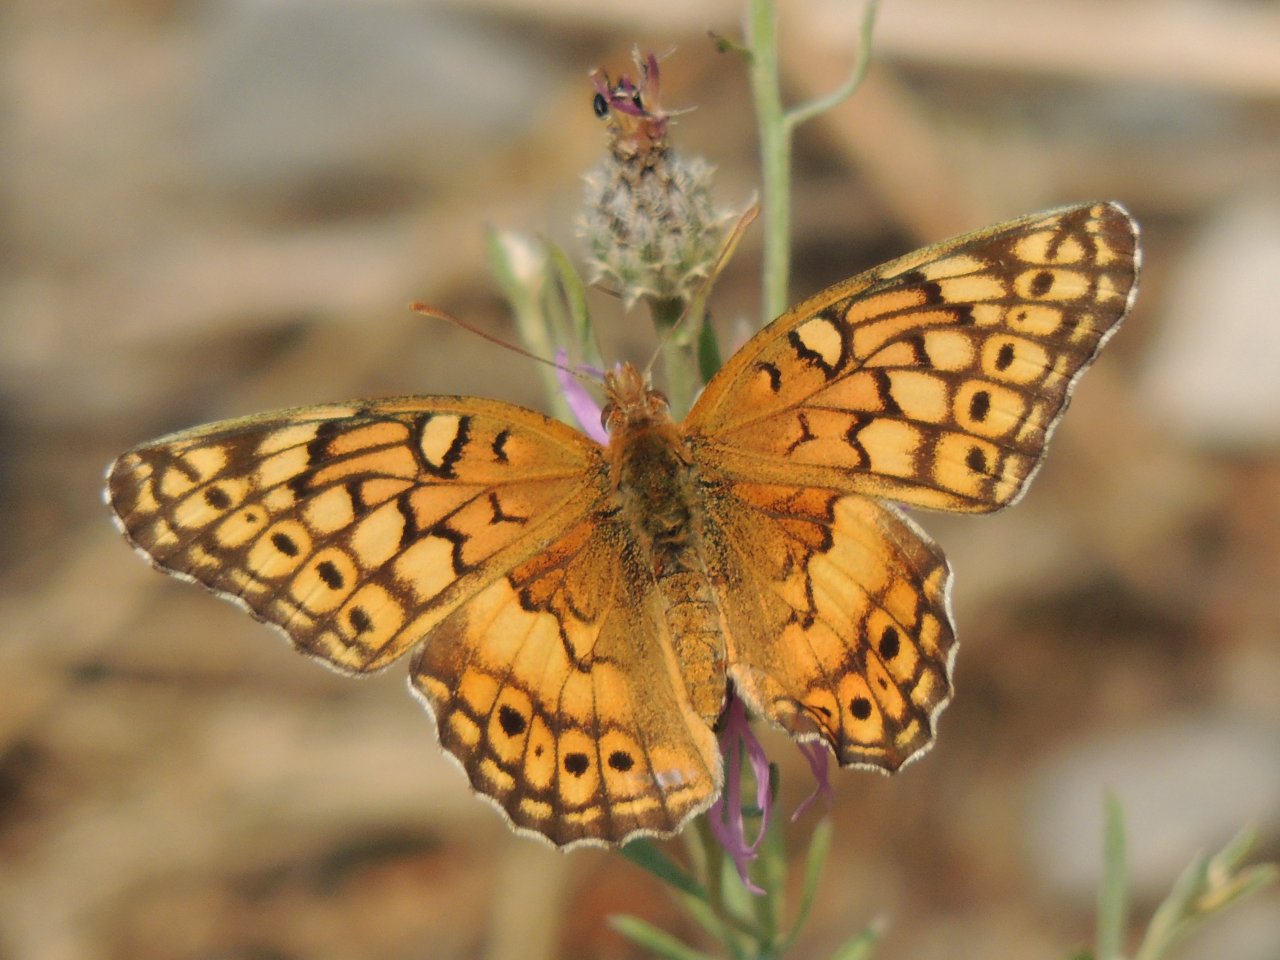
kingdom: Animalia
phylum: Arthropoda
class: Insecta
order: Lepidoptera
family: Nymphalidae
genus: Euptoieta
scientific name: Euptoieta claudia
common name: Variegated Fritillary
